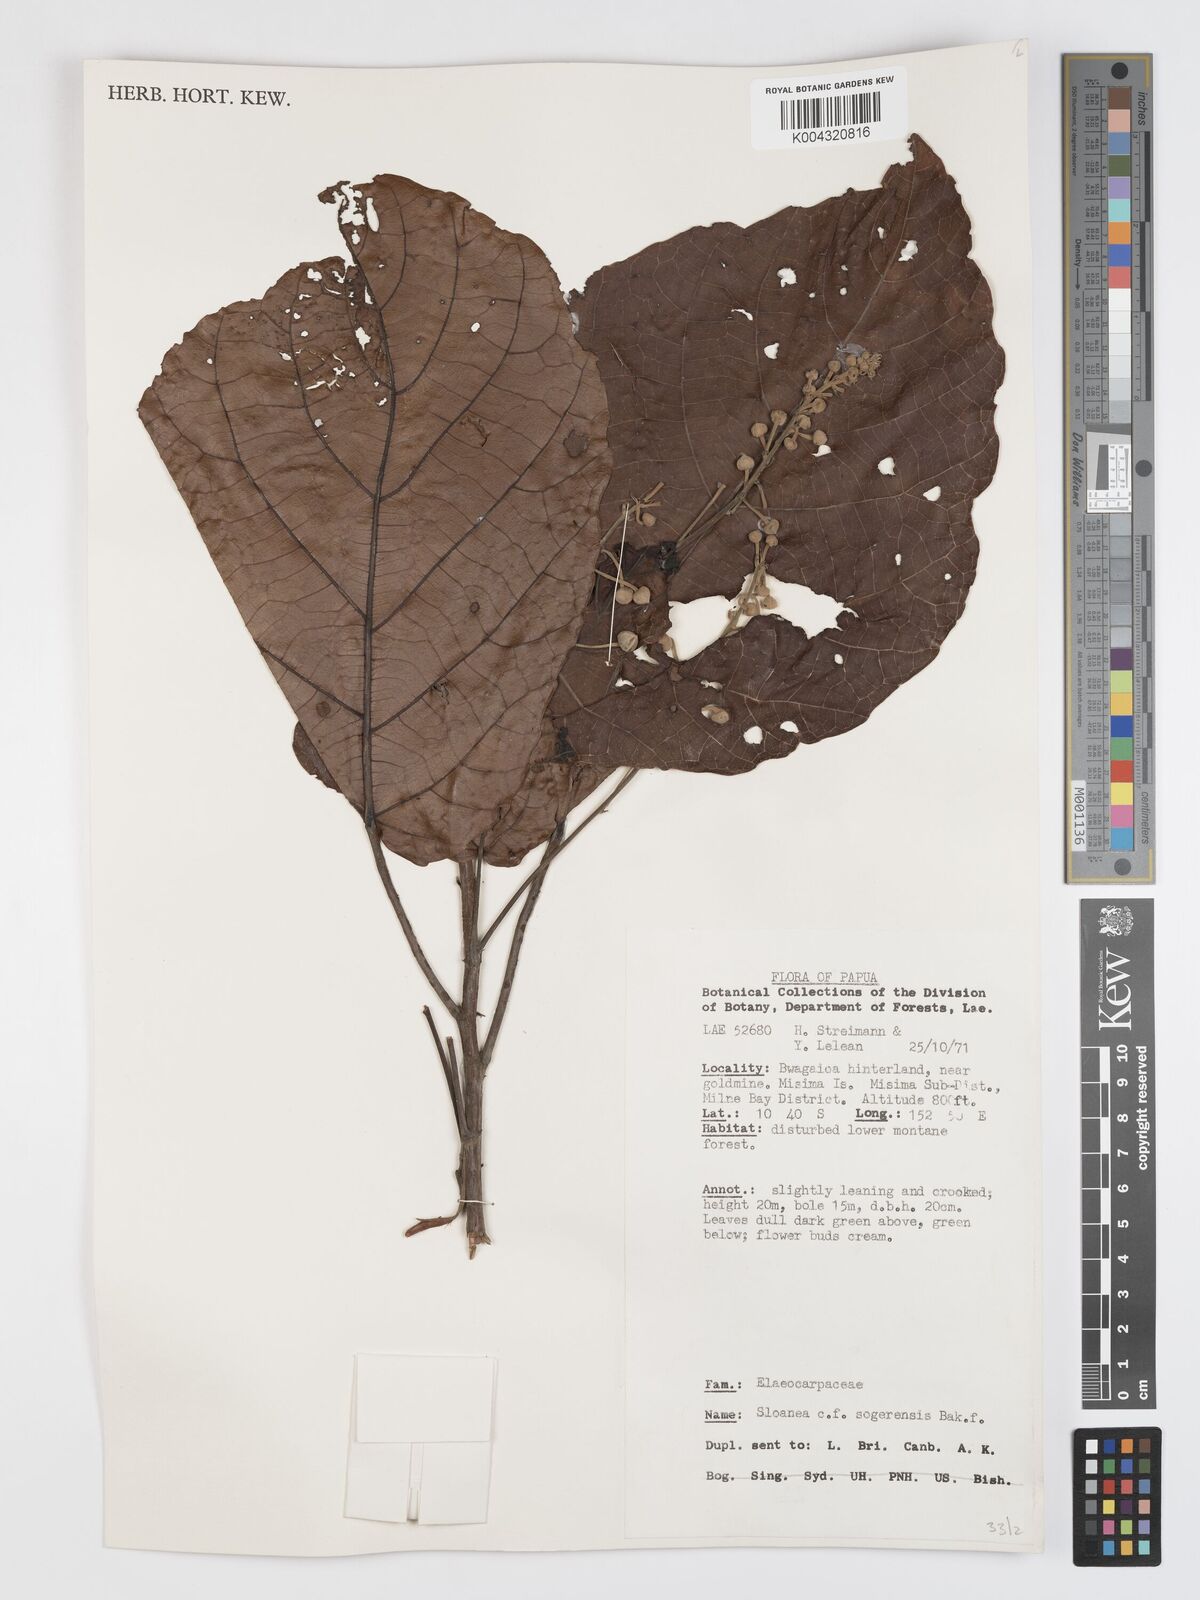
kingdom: Plantae
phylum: Tracheophyta
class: Magnoliopsida
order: Oxalidales
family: Elaeocarpaceae
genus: Sloanea
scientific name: Sloanea sogerensis
